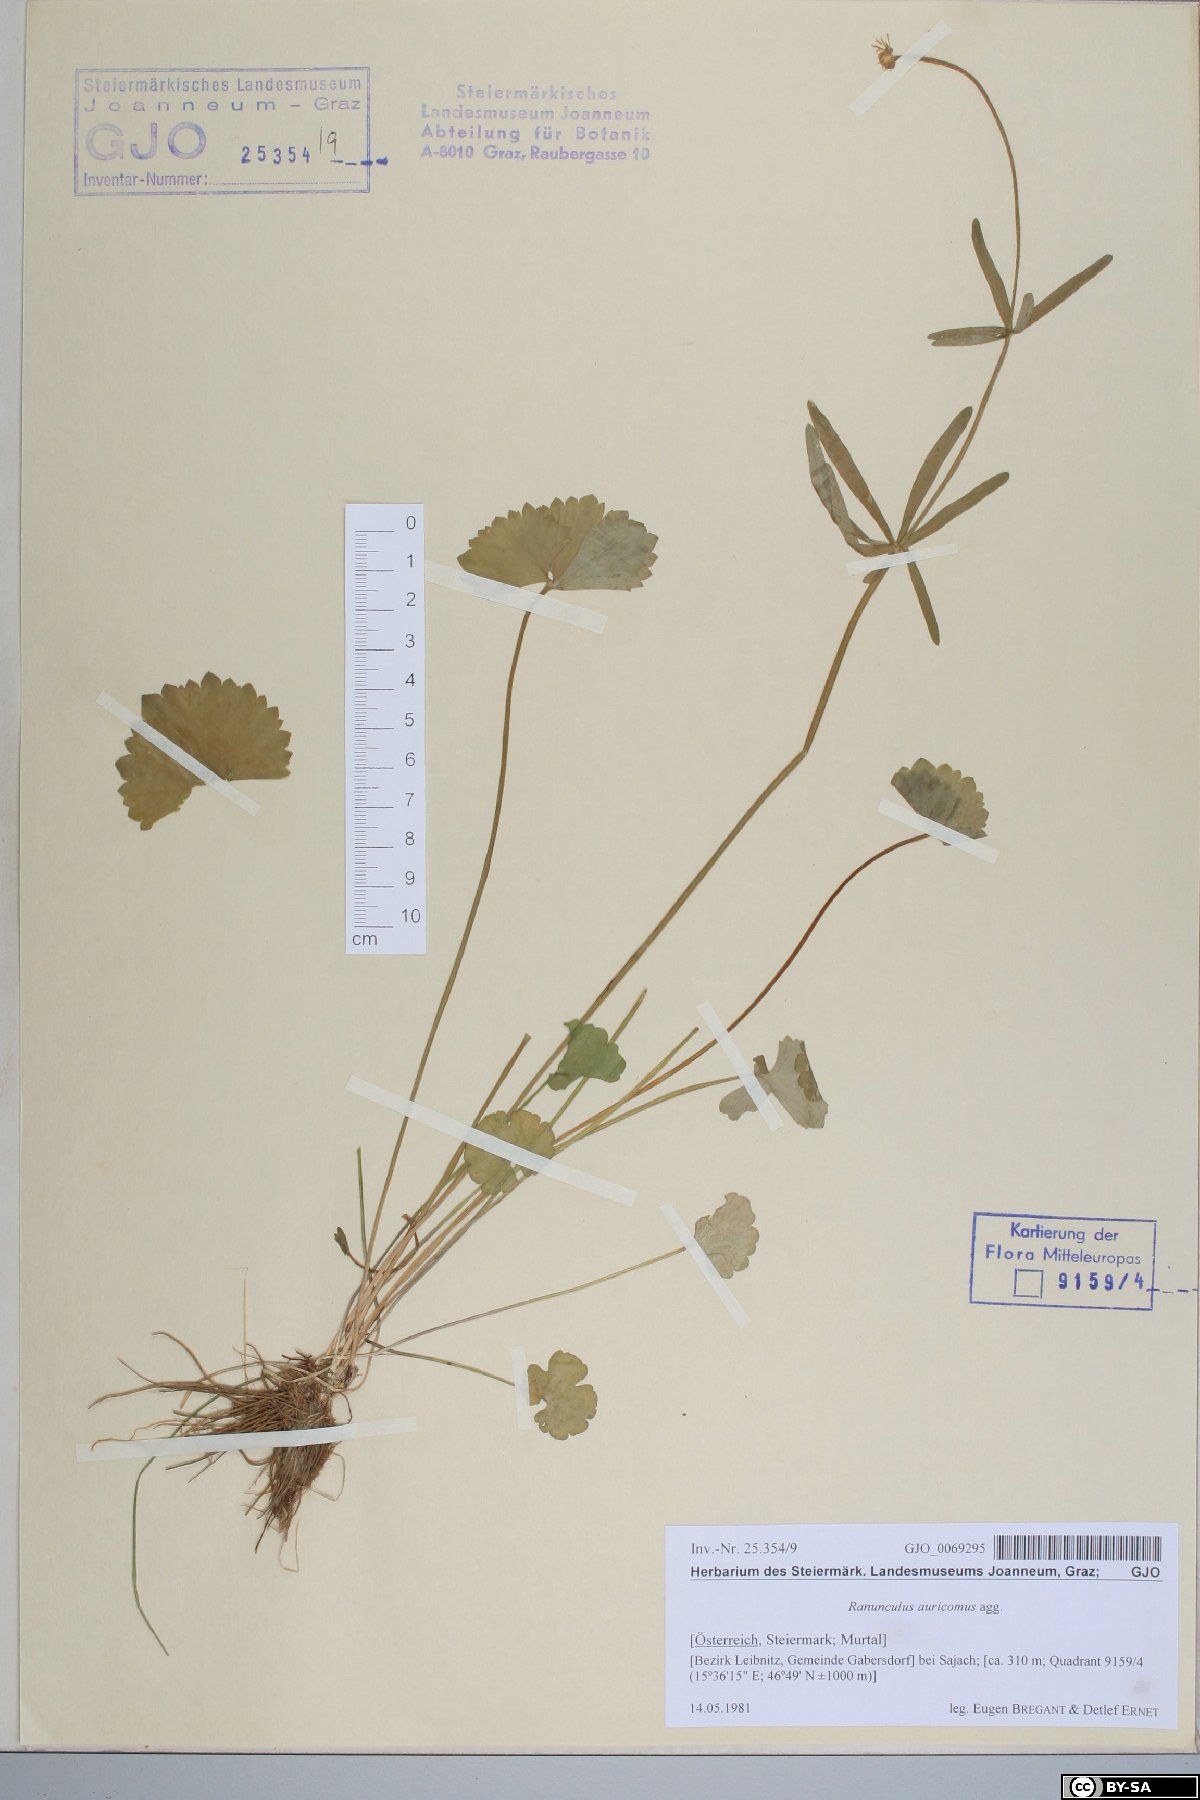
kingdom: Plantae
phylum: Tracheophyta
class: Magnoliopsida
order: Ranunculales
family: Ranunculaceae
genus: Ranunculus
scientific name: Ranunculus auricomus
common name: Goldilocks buttercup
